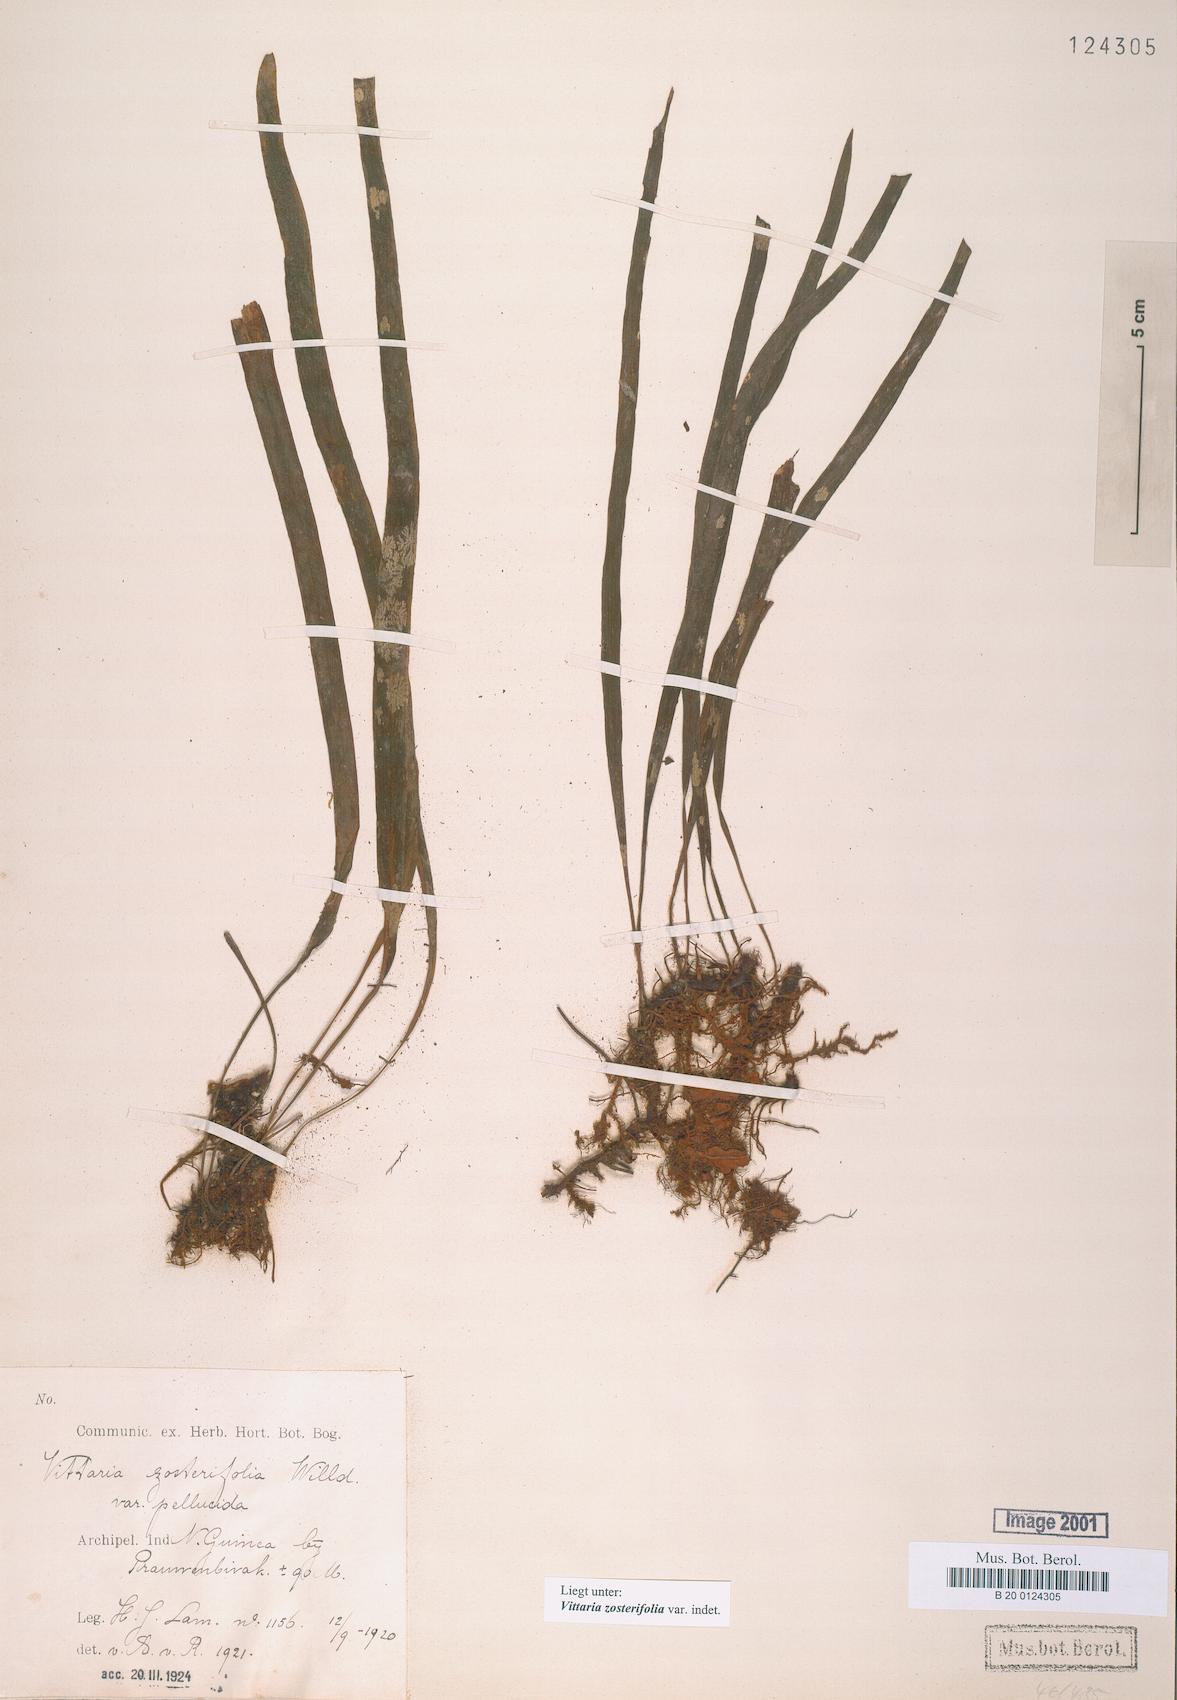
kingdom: Plantae
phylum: Tracheophyta
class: Polypodiopsida
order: Polypodiales
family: Pteridaceae
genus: Haplopteris
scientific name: Haplopteris zosterifolia
